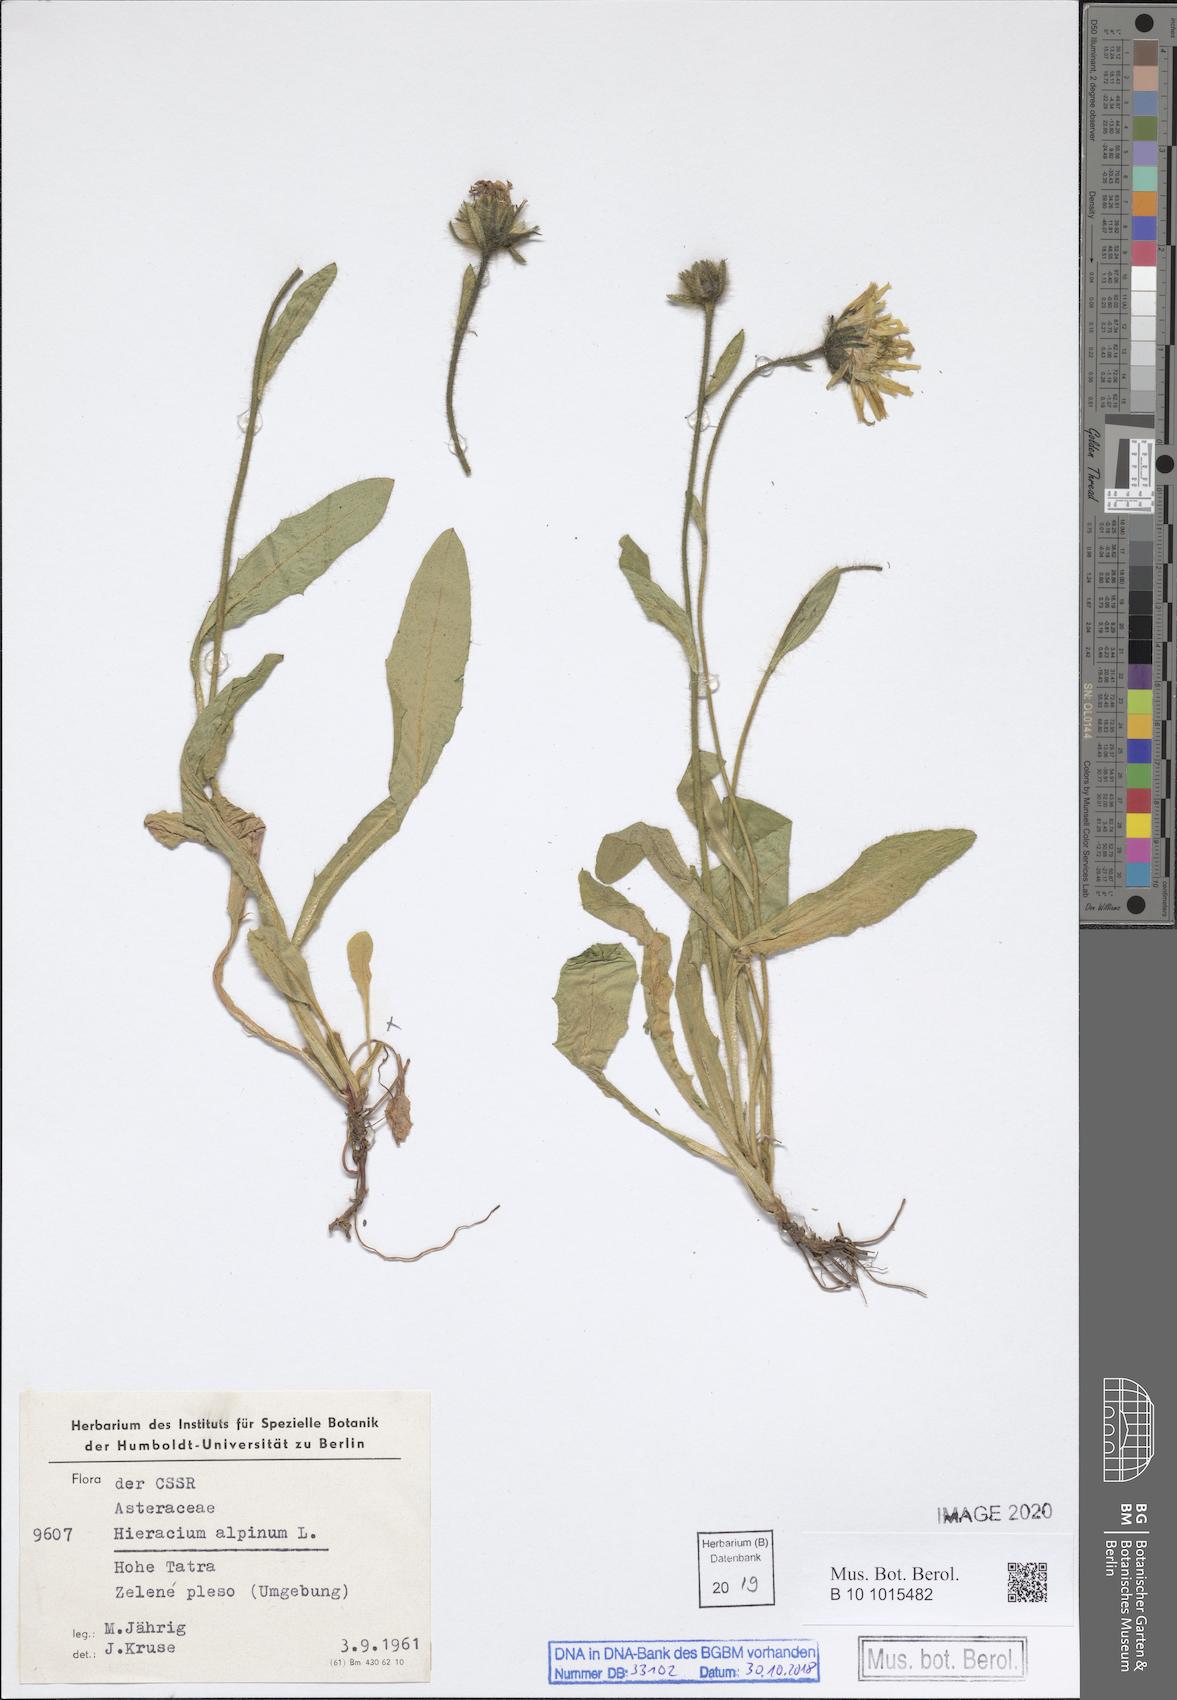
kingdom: Plantae
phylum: Tracheophyta
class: Magnoliopsida
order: Asterales
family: Asteraceae
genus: Hieracium
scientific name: Hieracium alpinum
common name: Alpine hawkweed
